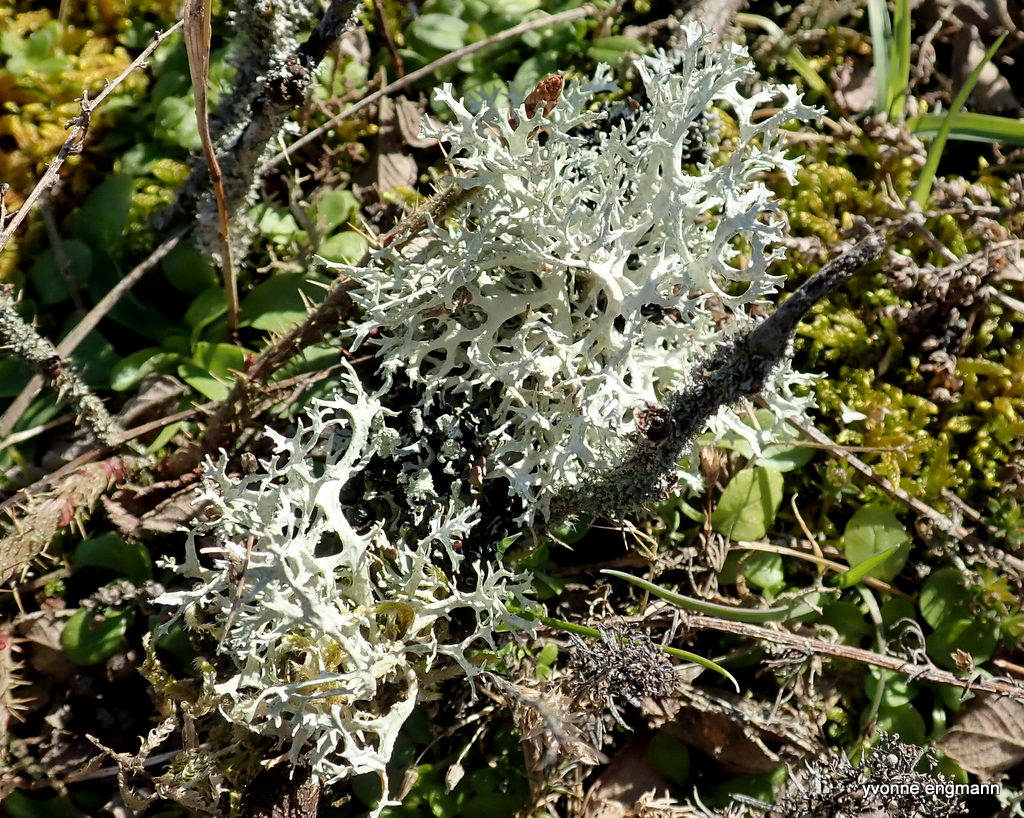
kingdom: Fungi
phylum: Ascomycota
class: Lecanoromycetes
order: Lecanorales
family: Parmeliaceae
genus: Evernia
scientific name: Evernia prunastri
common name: almindelig slåenlav
